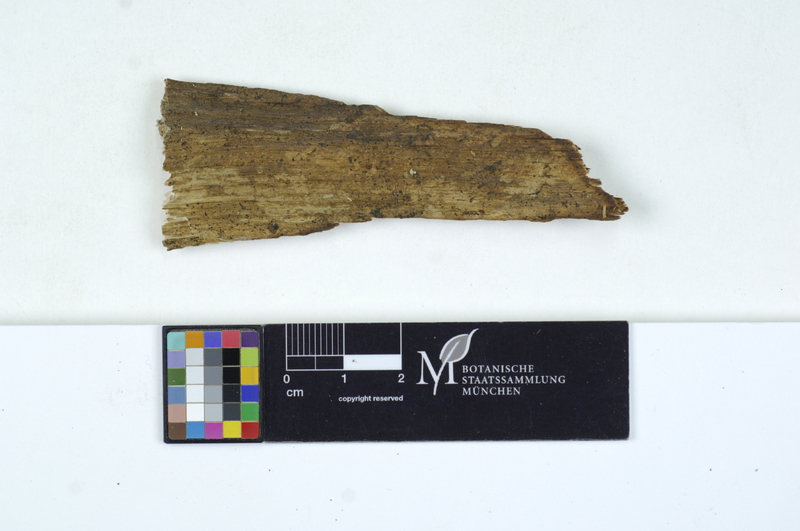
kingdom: Fungi
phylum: Basidiomycota
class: Agaricomycetes
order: Cantharellales
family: Tulasnellaceae
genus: Tulasnella
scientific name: Tulasnella cystidiophora
